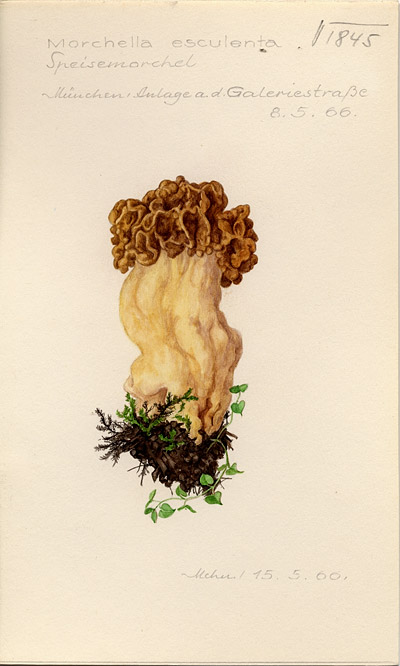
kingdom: Fungi
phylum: Ascomycota
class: Pezizomycetes
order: Pezizales
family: Morchellaceae
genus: Morchella
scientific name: Morchella esculenta
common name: Morel
